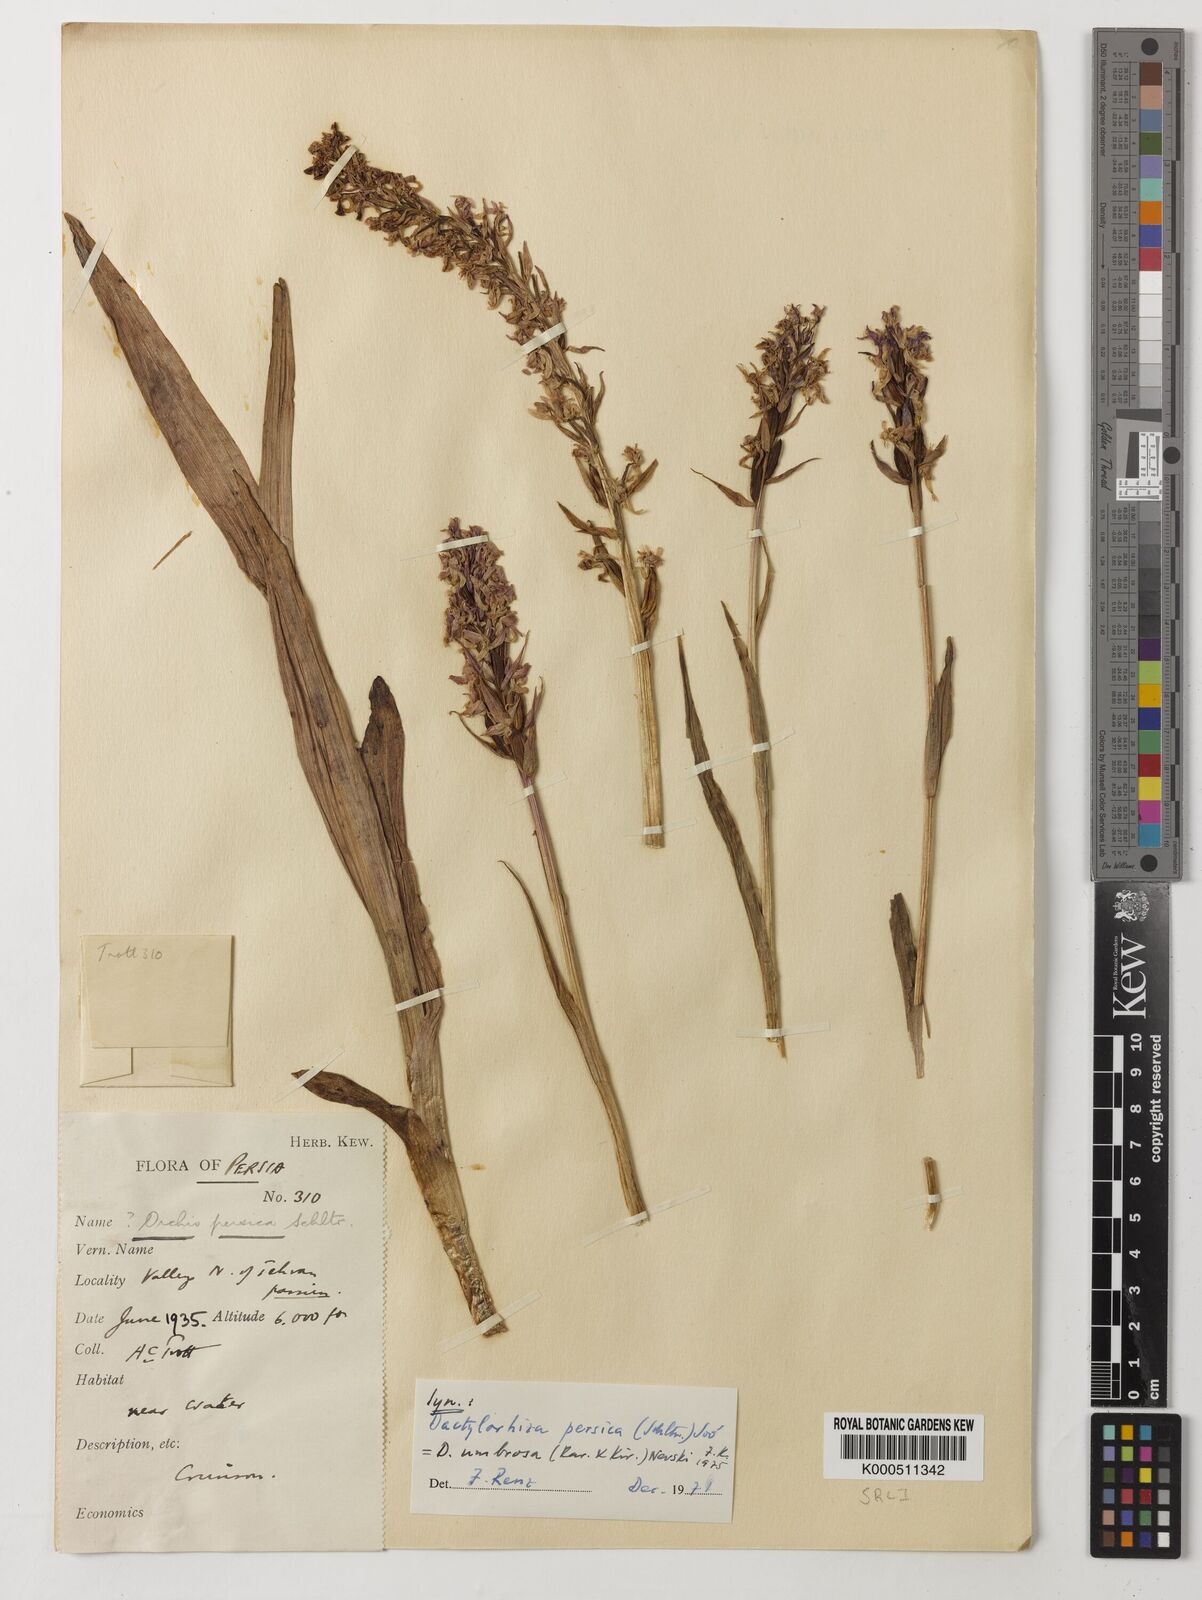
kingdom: Plantae
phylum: Tracheophyta
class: Liliopsida
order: Asparagales
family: Orchidaceae
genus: Dactylorhiza
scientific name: Dactylorhiza
